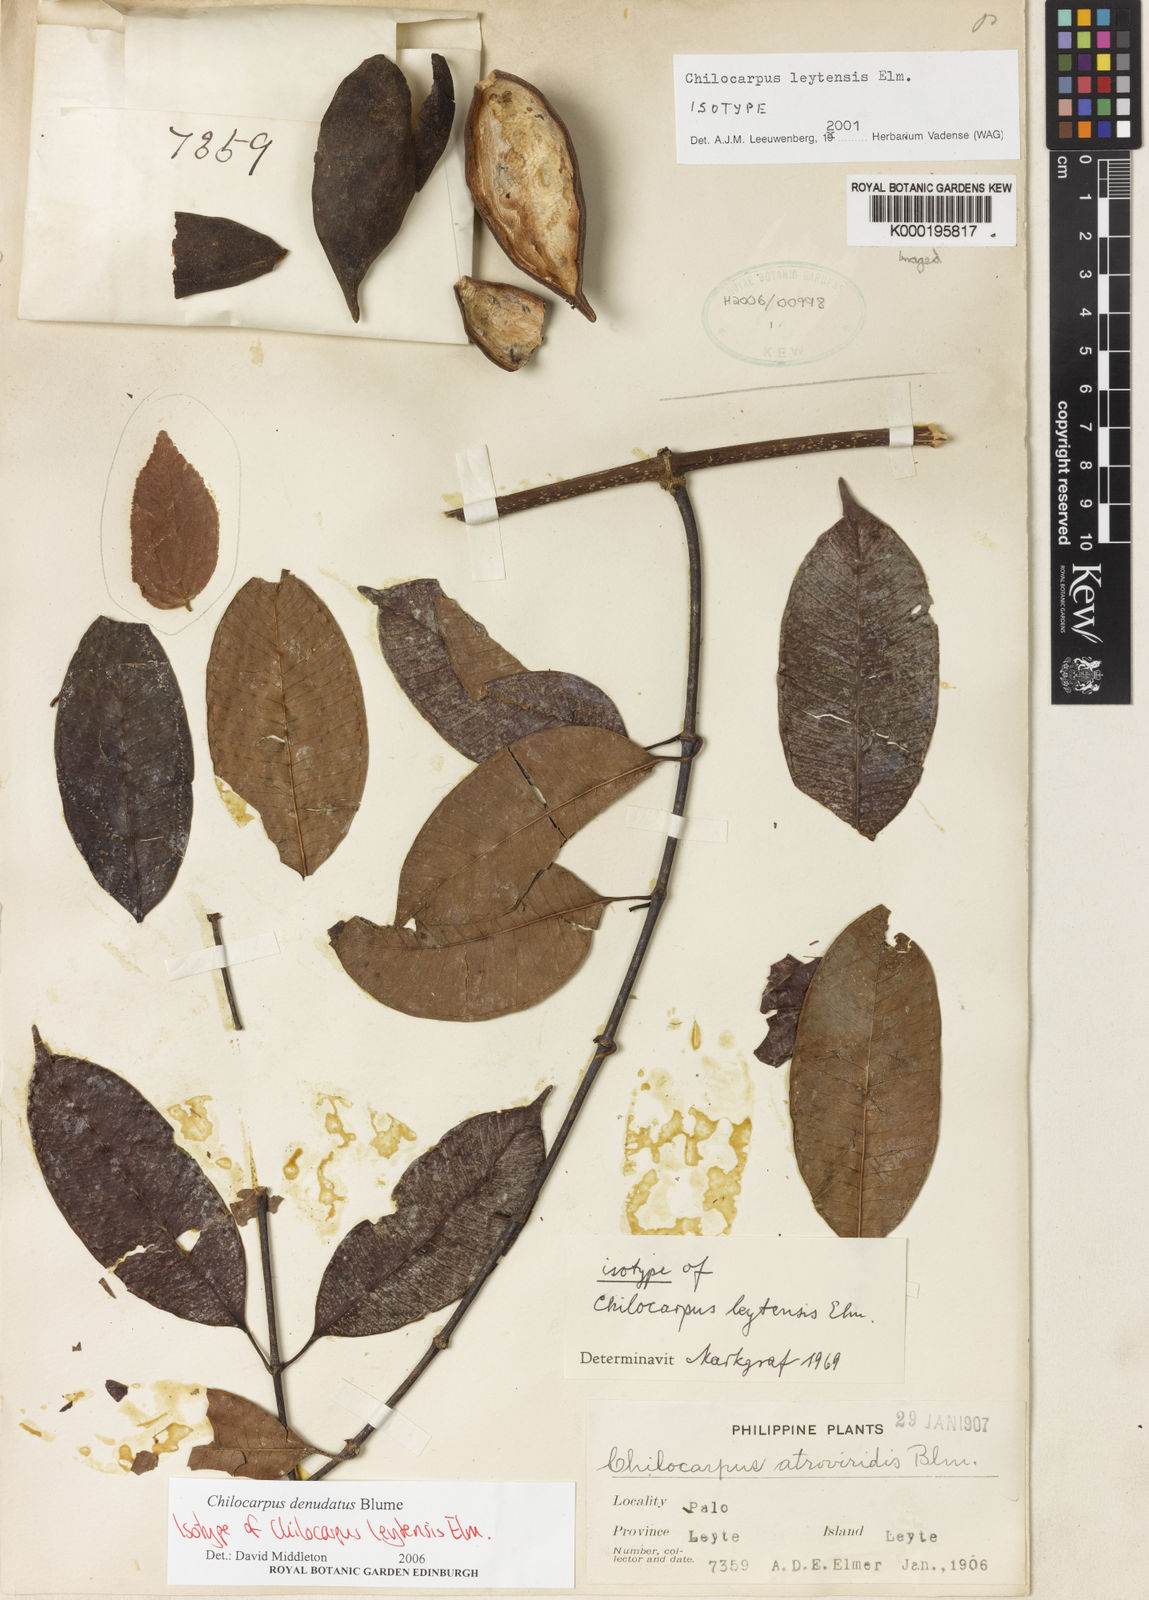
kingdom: Plantae
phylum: Tracheophyta
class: Magnoliopsida
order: Gentianales
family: Apocynaceae
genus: Chilocarpus
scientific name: Chilocarpus denudatus
